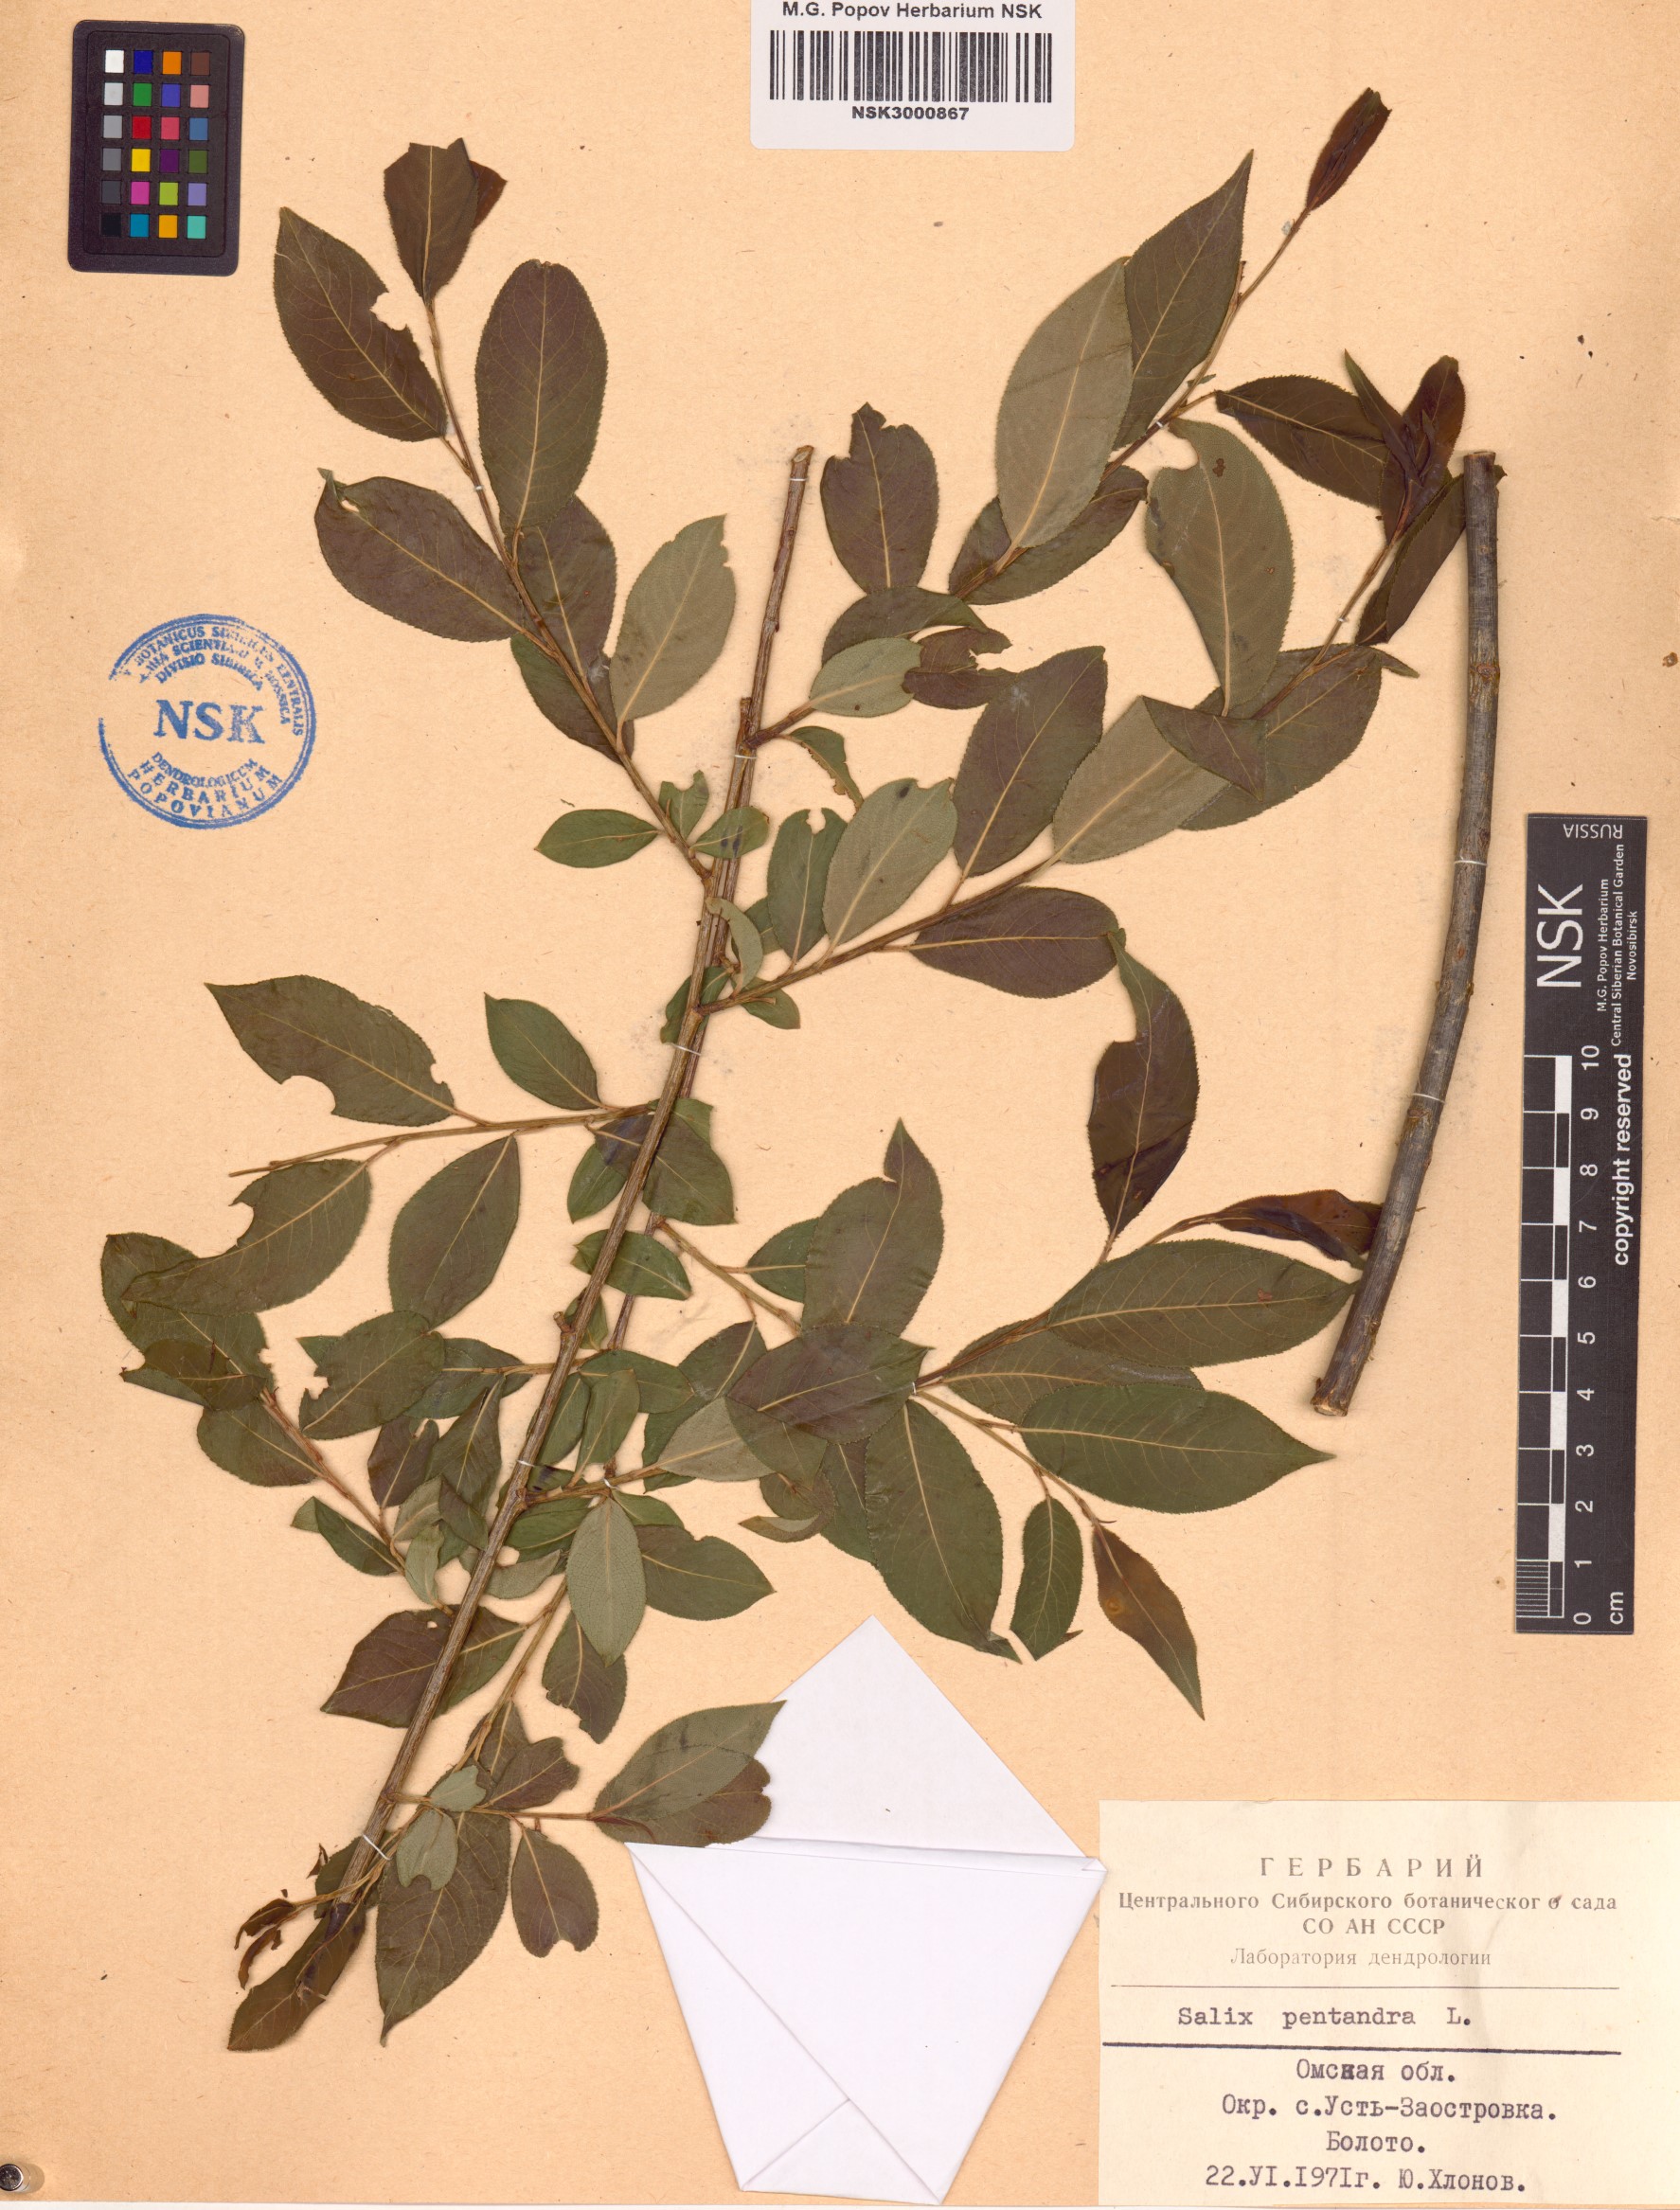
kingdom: Plantae
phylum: Tracheophyta
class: Magnoliopsida
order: Malpighiales
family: Salicaceae
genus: Salix
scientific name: Salix pentandra
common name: Bay willow
